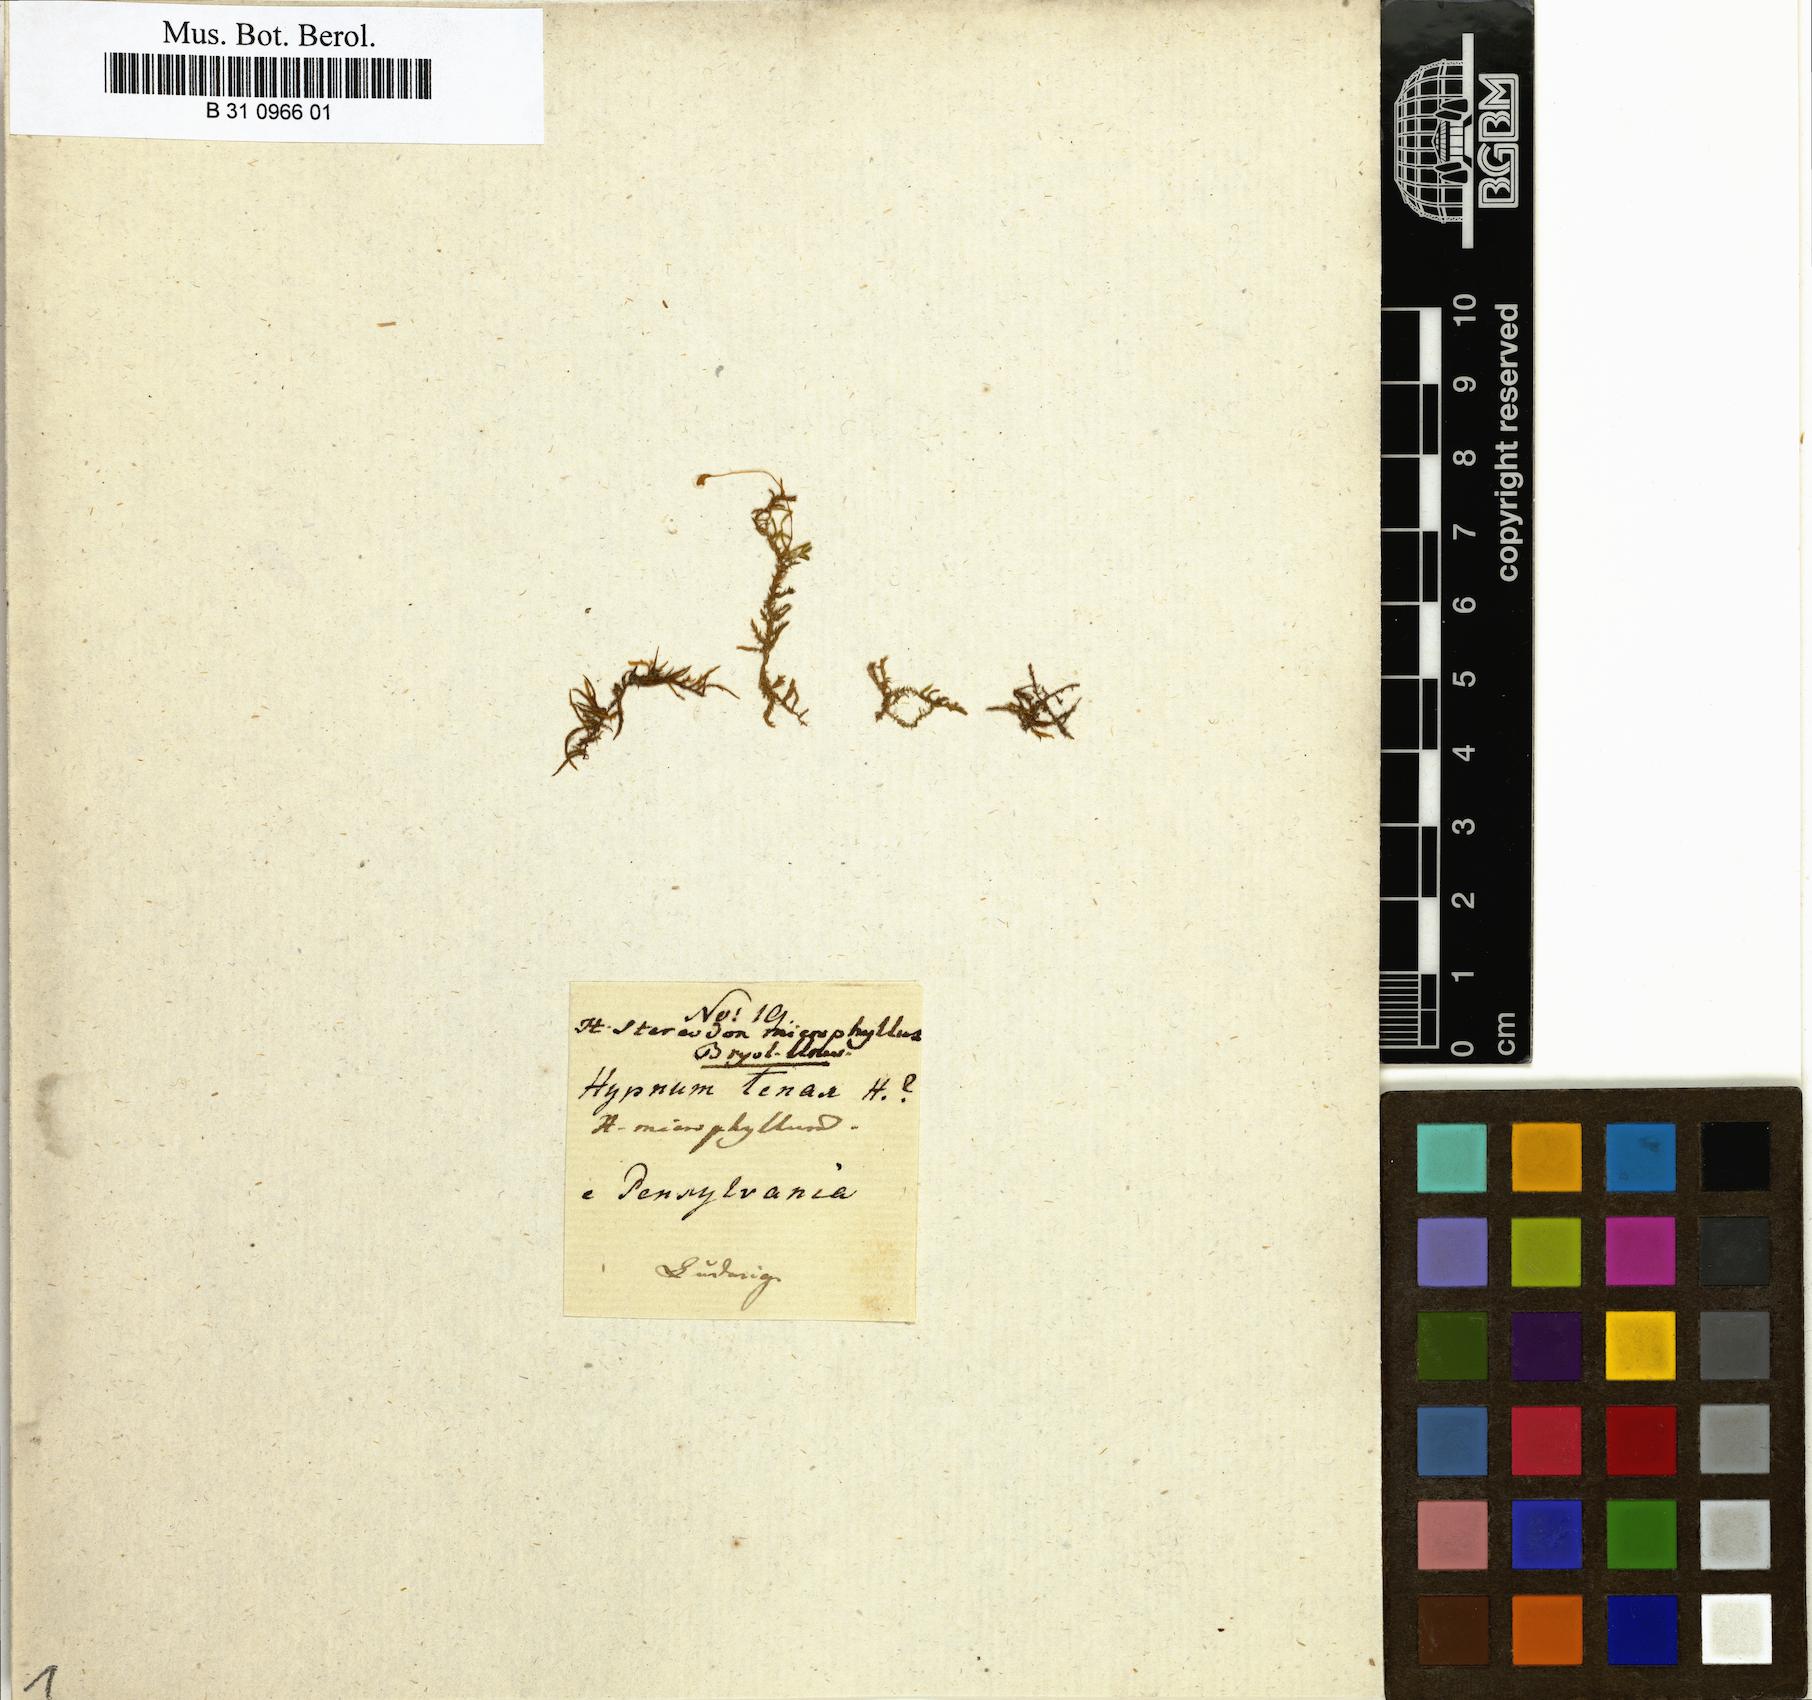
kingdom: Plantae
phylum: Bryophyta
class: Bryopsida
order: Hypnales
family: Leskeaceae
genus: Haplocladium
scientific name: Haplocladium microphyllum
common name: Tiny-leaved haplocladium
